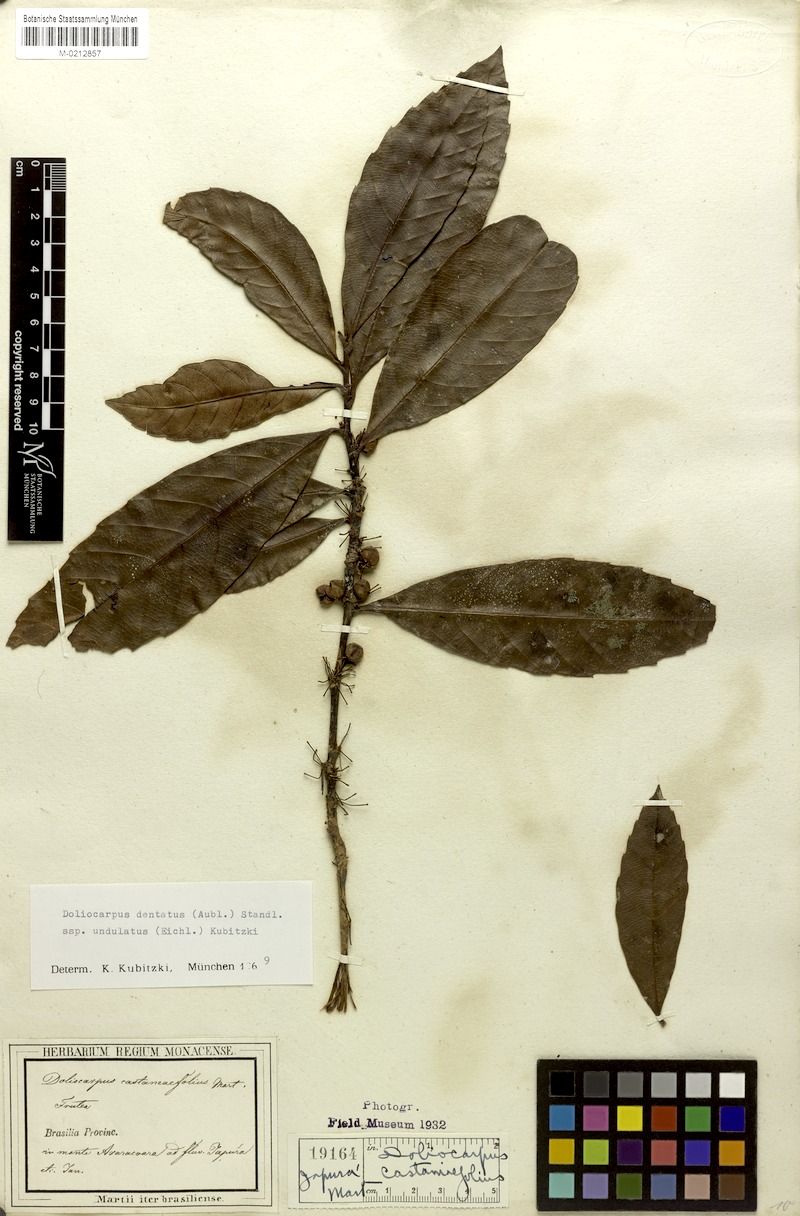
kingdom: Plantae
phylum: Tracheophyta
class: Magnoliopsida
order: Dilleniales
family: Dilleniaceae
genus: Doliocarpus
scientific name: Doliocarpus dentatus
